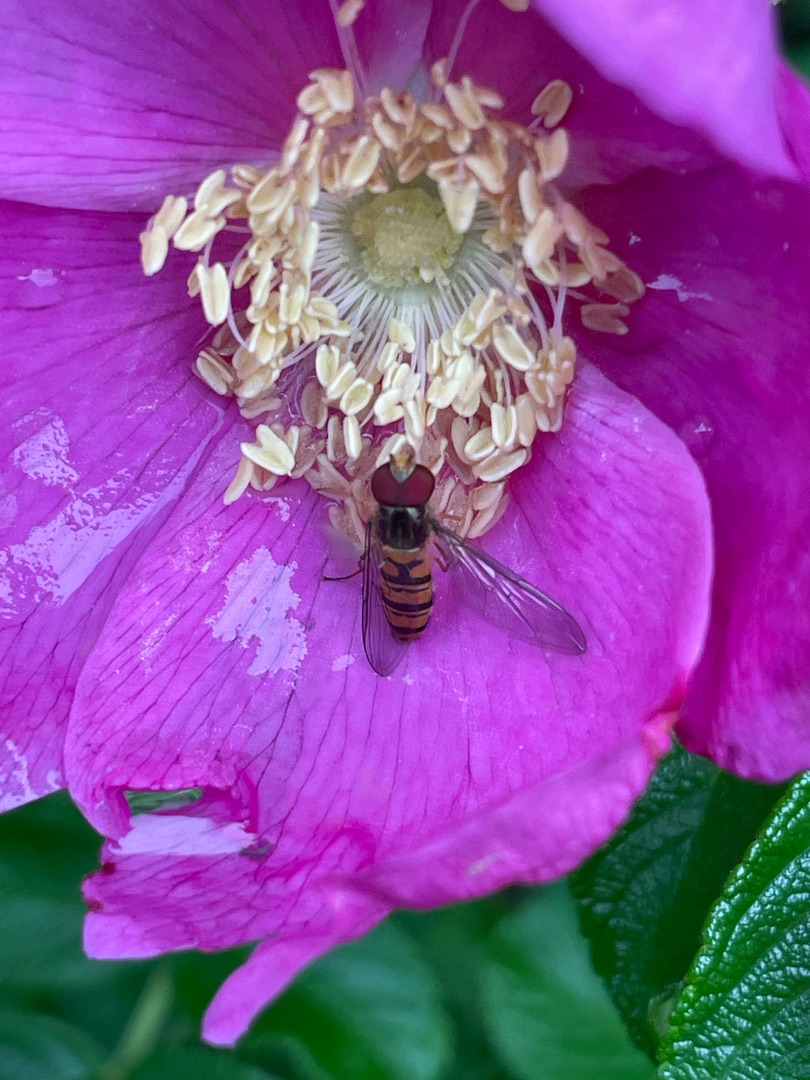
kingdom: Animalia
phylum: Arthropoda
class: Insecta
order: Diptera
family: Syrphidae
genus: Episyrphus
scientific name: Episyrphus balteatus
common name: Dobbeltbåndet svirreflue
